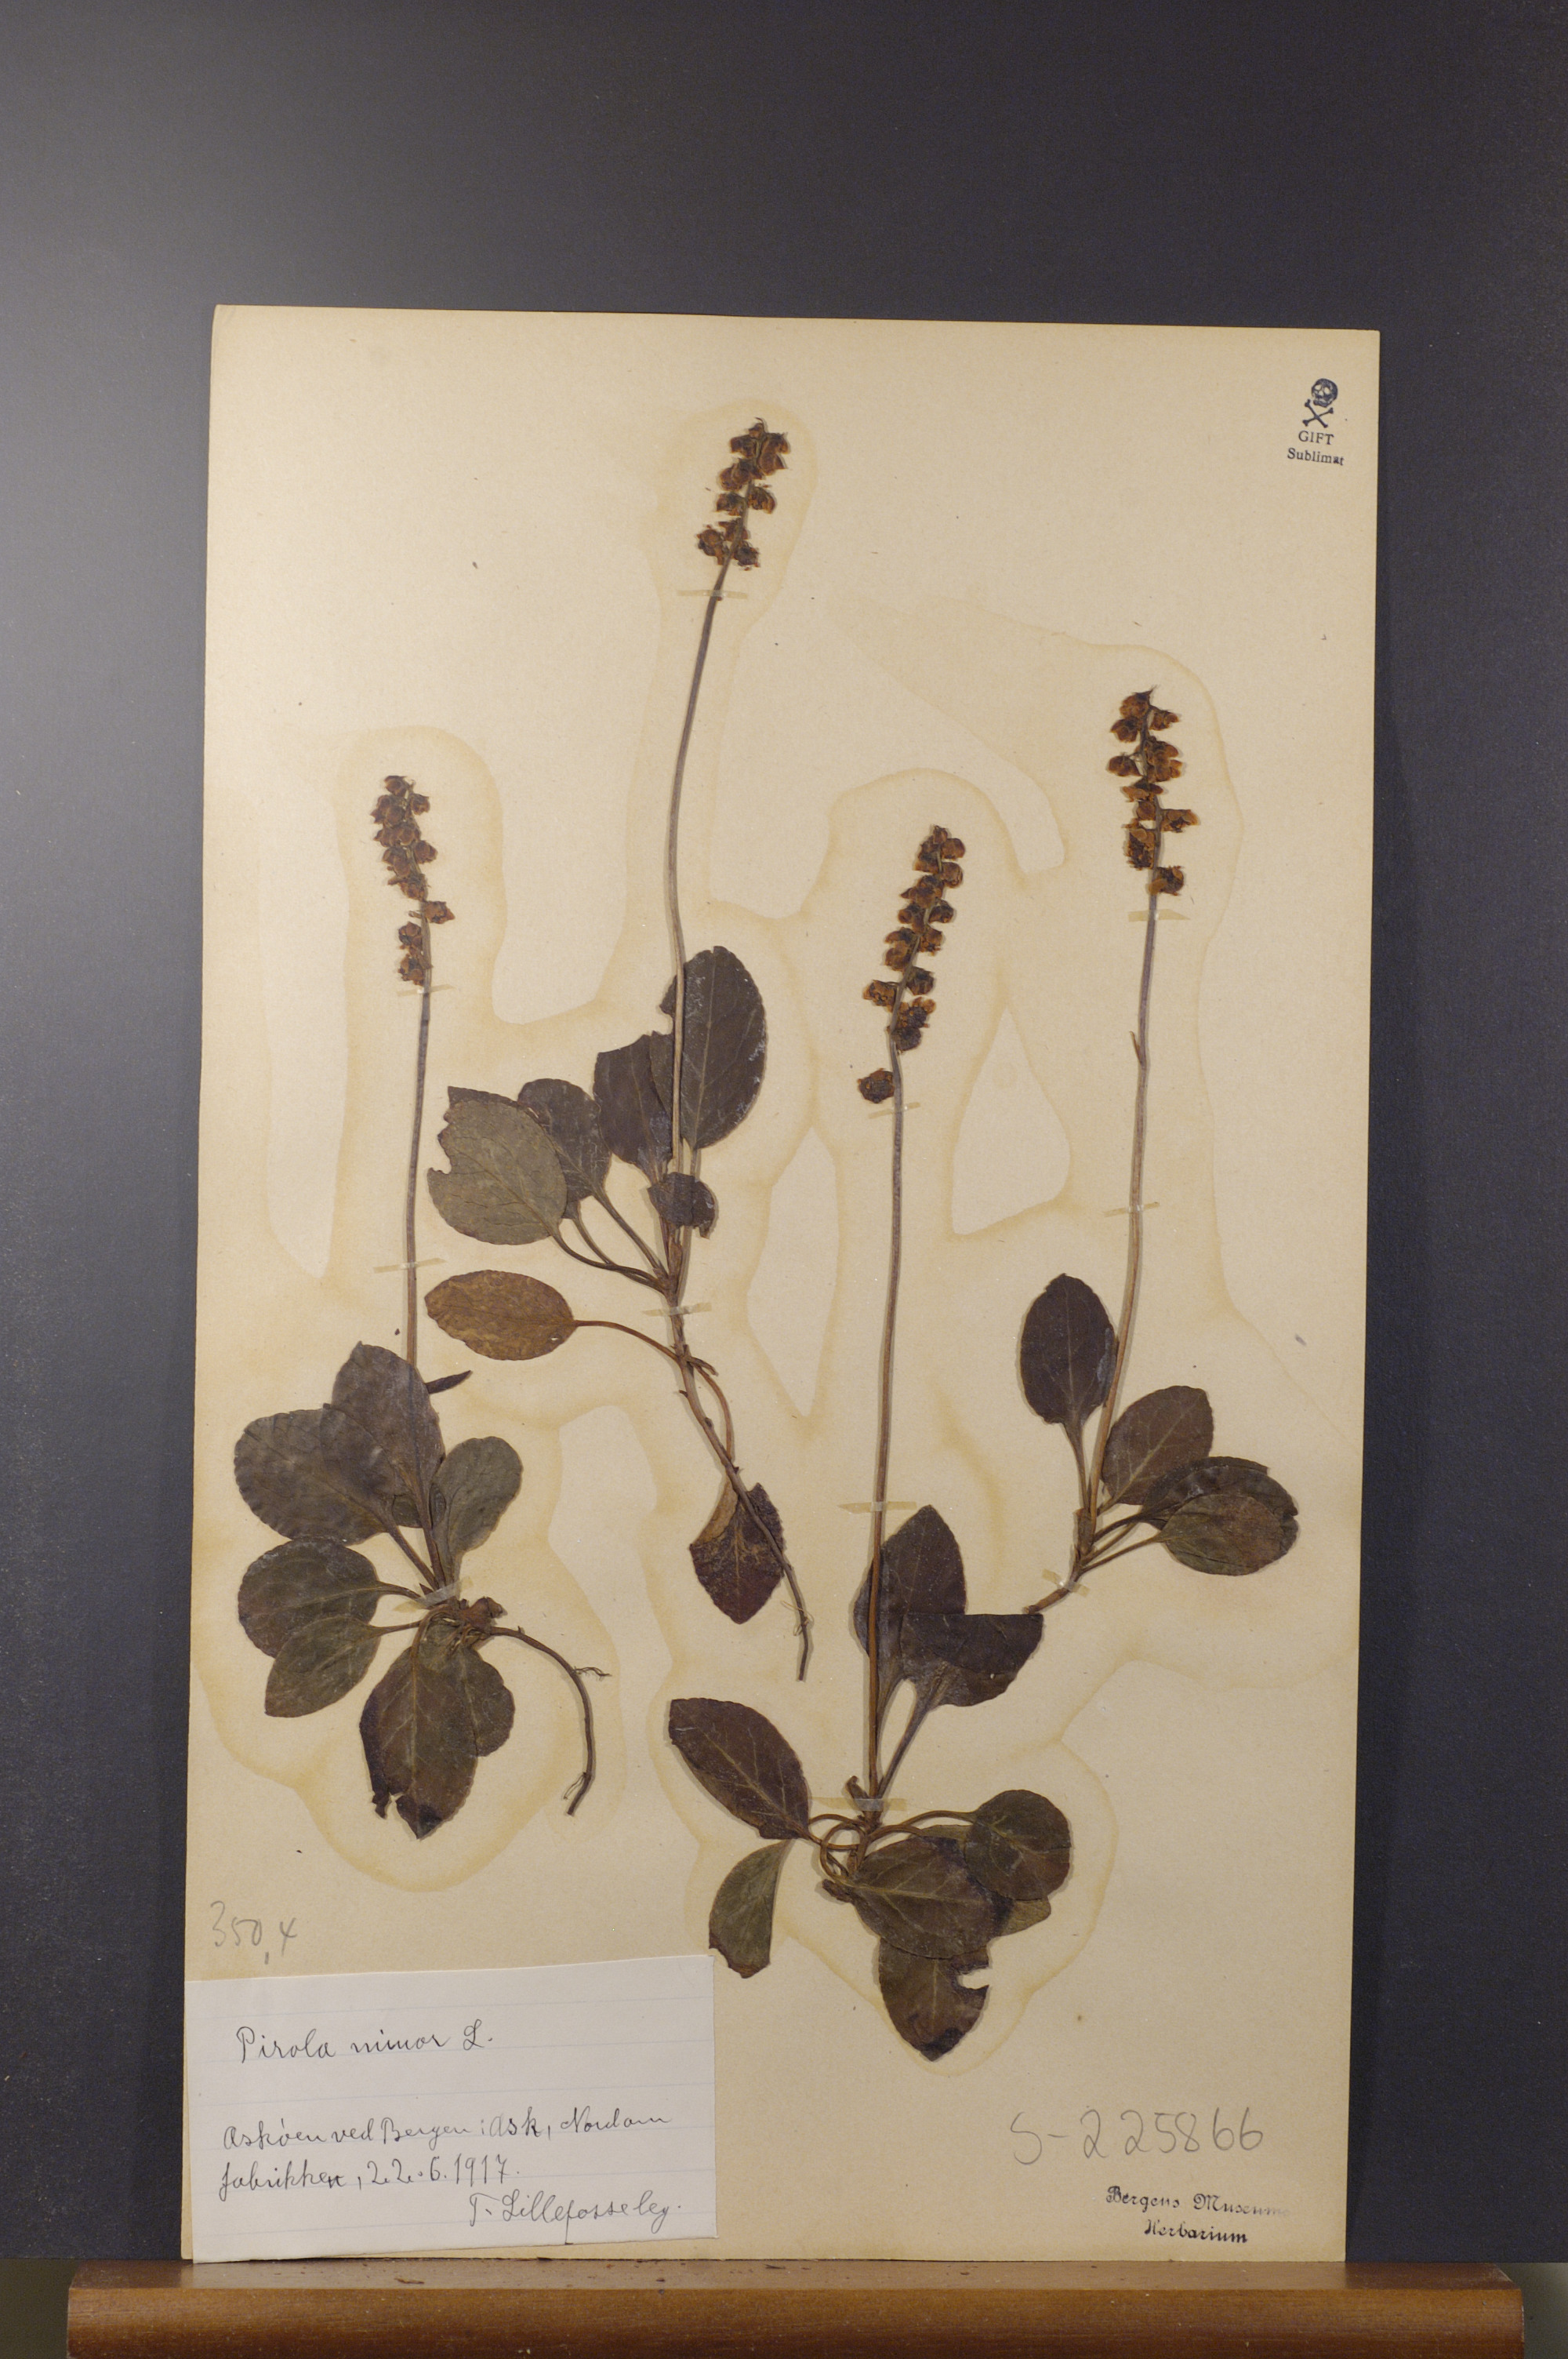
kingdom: Plantae
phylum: Tracheophyta
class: Magnoliopsida
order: Ericales
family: Ericaceae
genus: Pyrola
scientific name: Pyrola minor
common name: Common wintergreen
